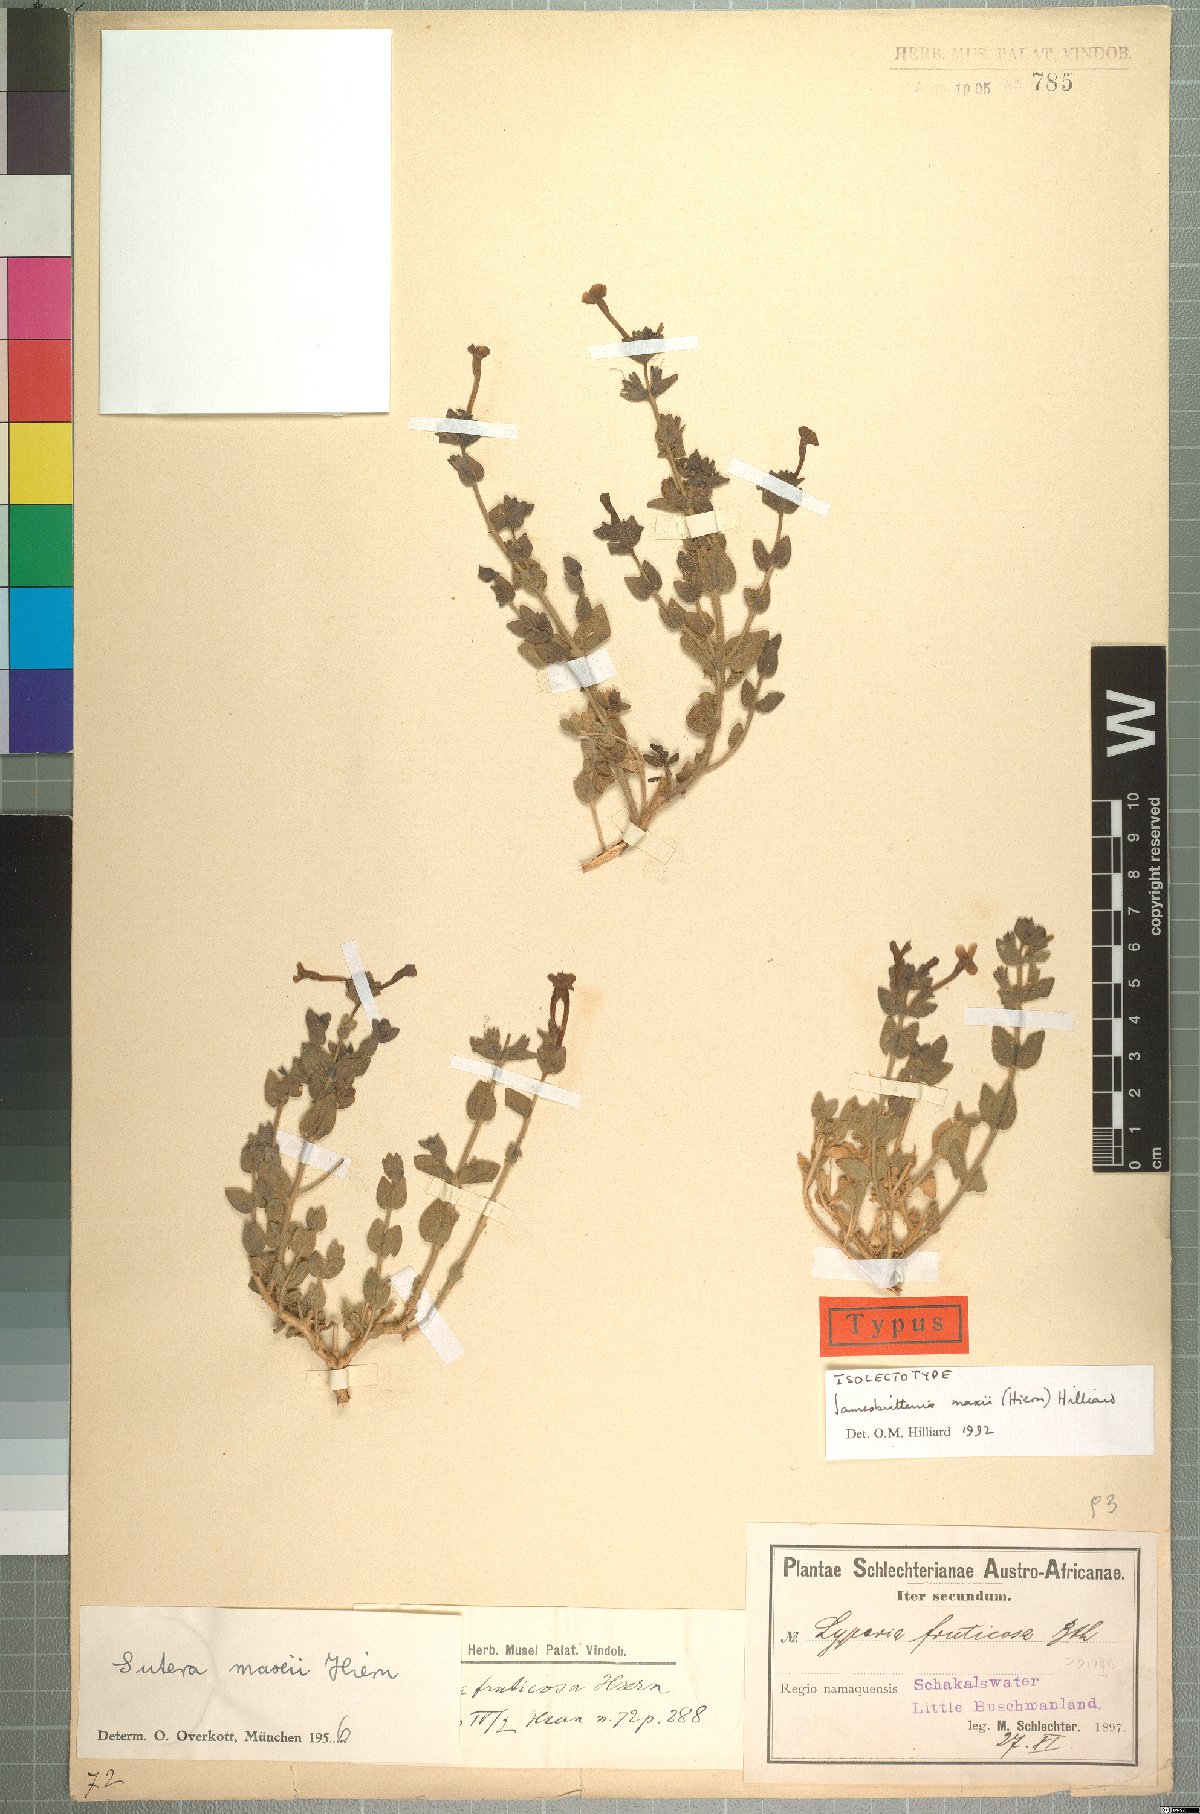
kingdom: Plantae
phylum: Tracheophyta
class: Magnoliopsida
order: Lamiales
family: Scrophulariaceae
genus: Jamesbrittenia
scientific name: Jamesbrittenia maxii
